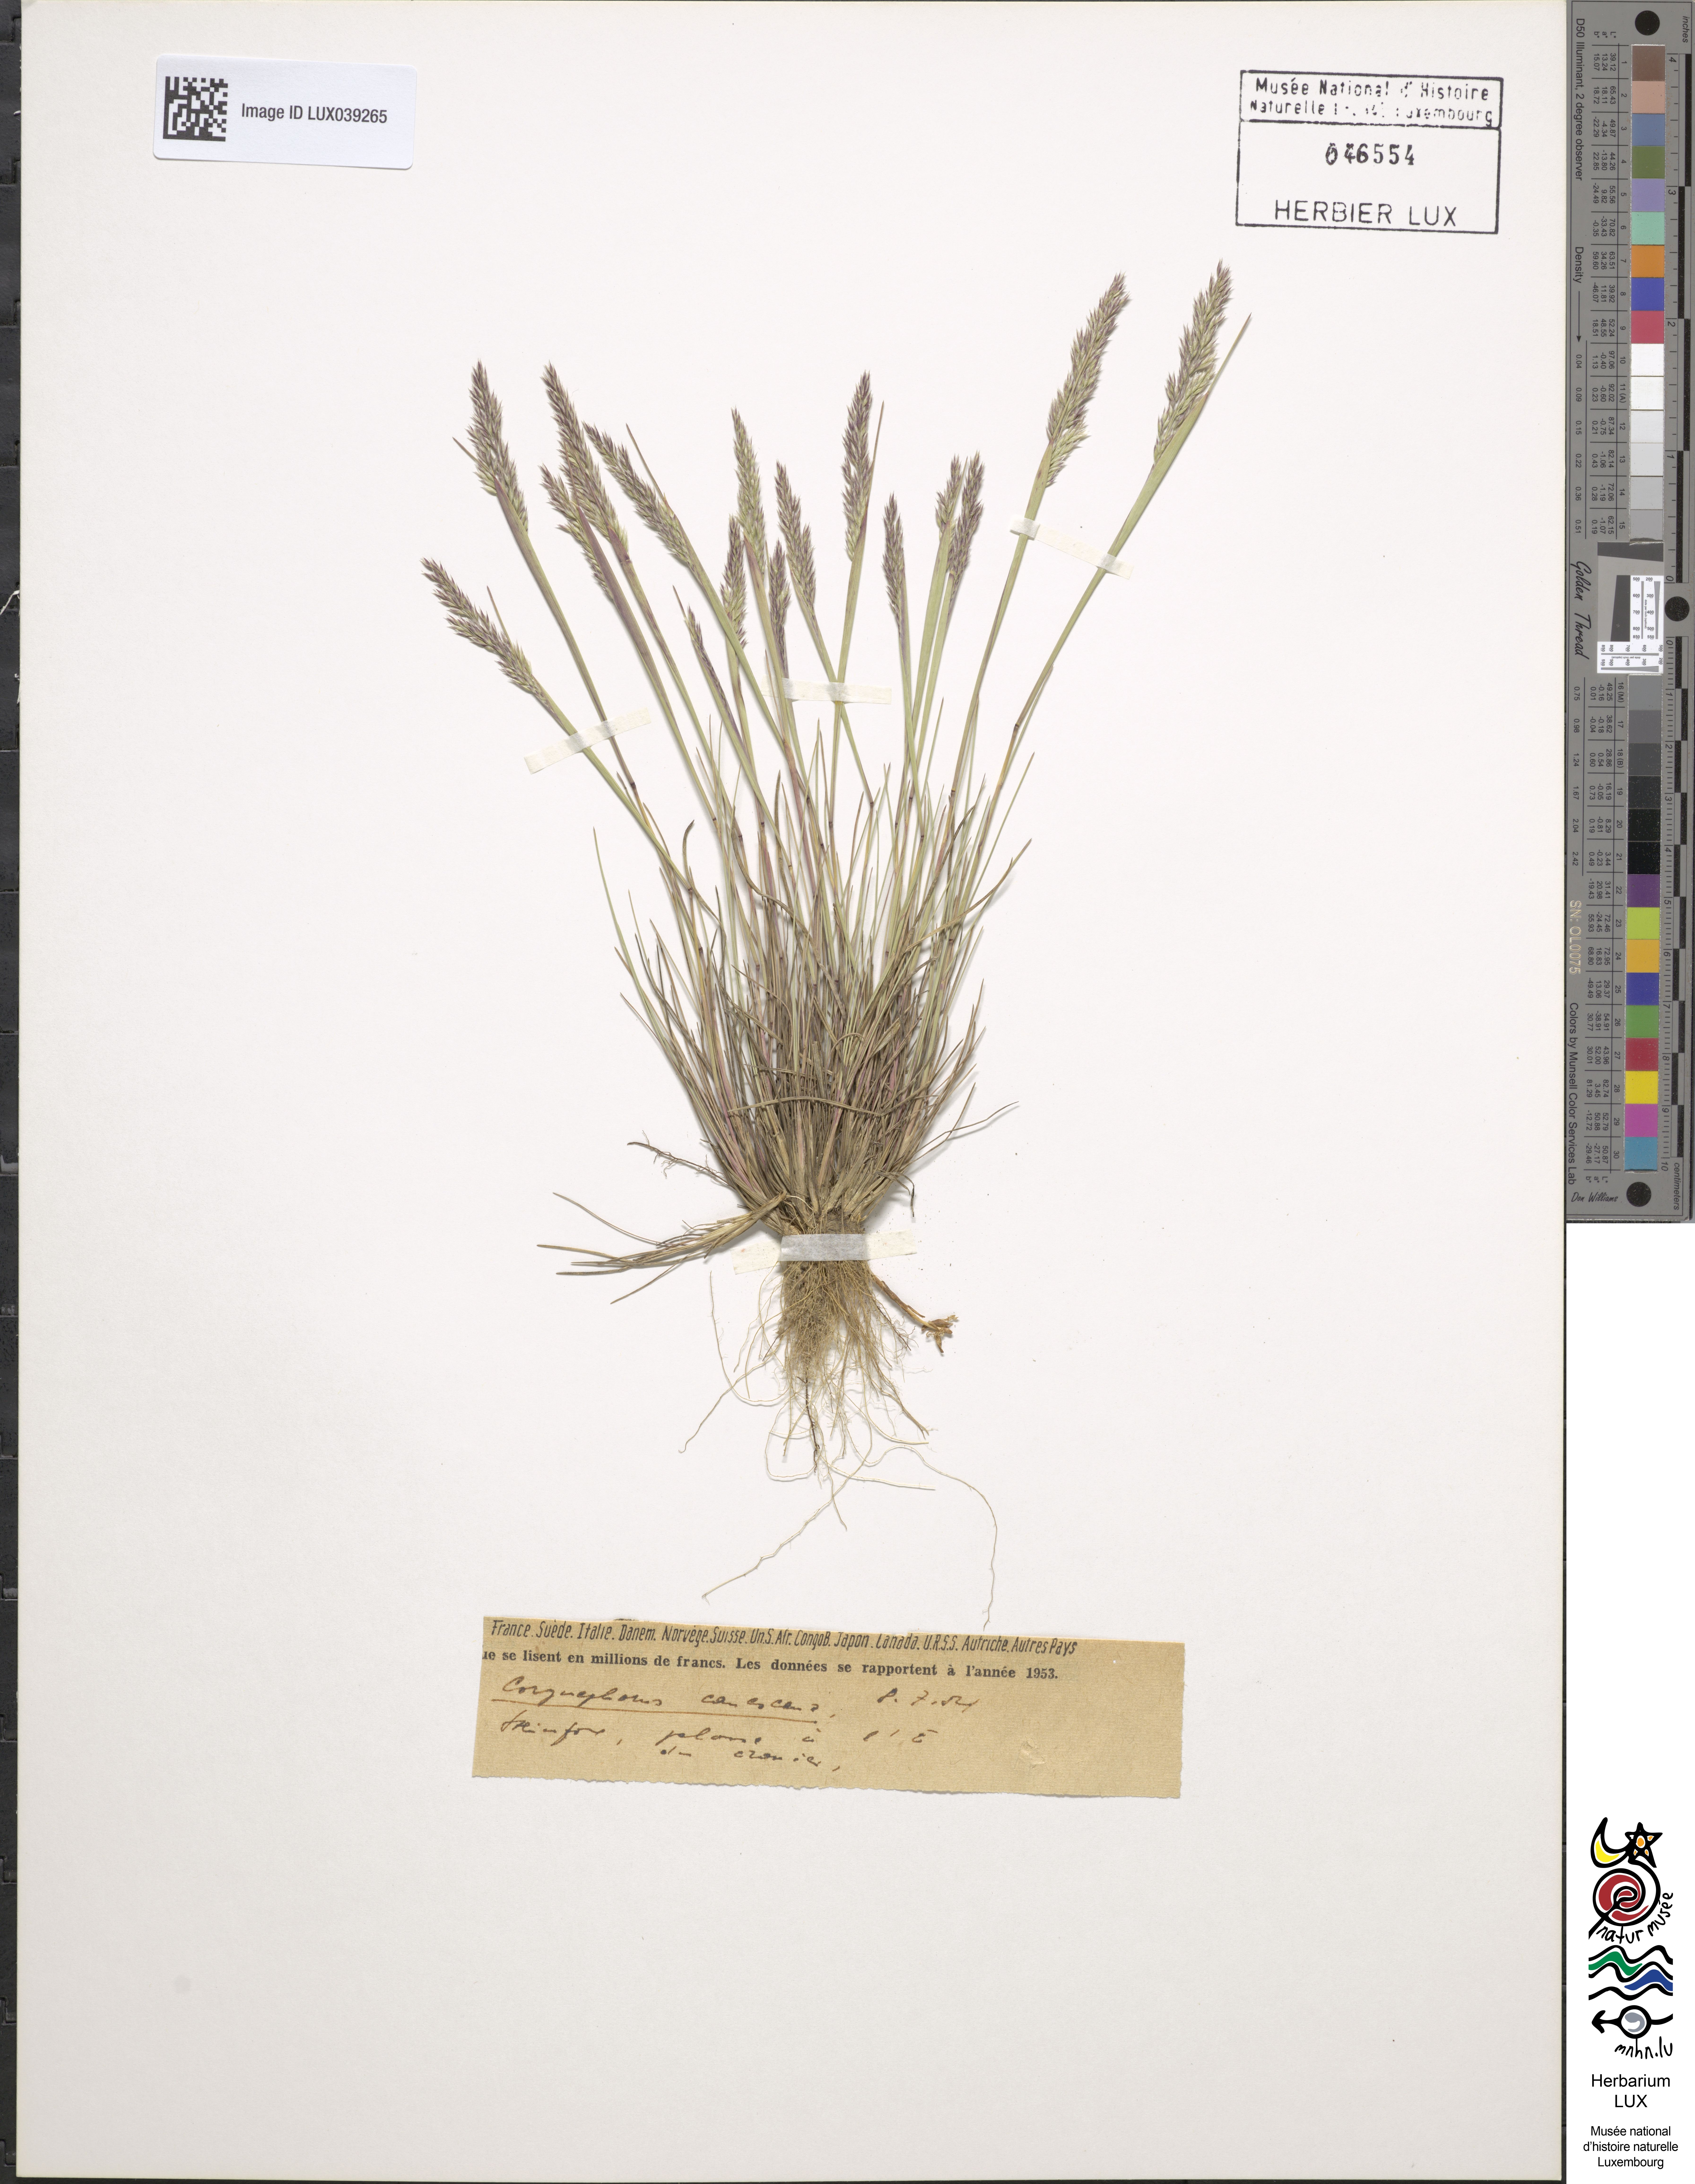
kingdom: Plantae
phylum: Tracheophyta
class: Liliopsida
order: Poales
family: Poaceae
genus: Corynephorus
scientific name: Corynephorus canescens
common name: Grey hair-grass
